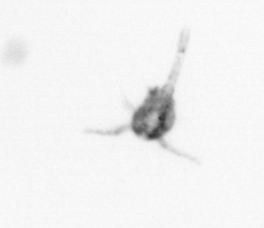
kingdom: Animalia
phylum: Arthropoda
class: Copepoda
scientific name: Copepoda
